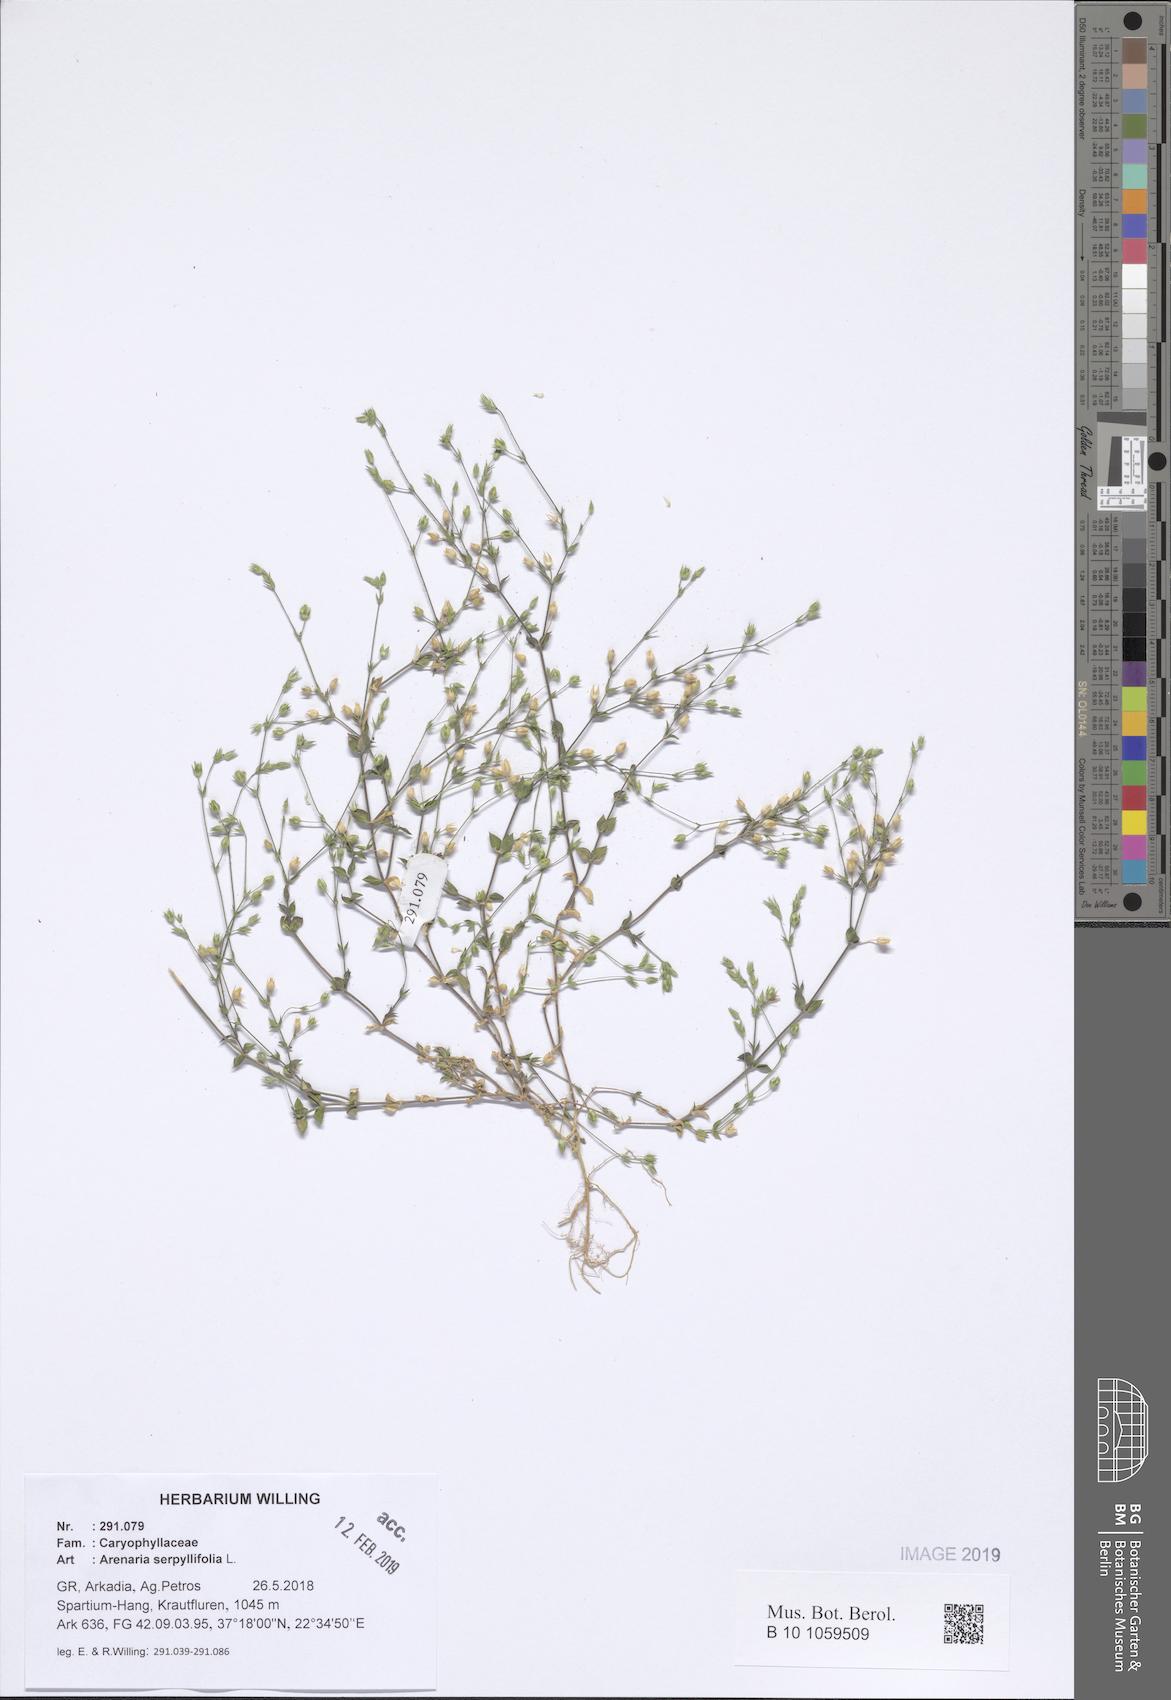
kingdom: Plantae
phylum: Tracheophyta
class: Magnoliopsida
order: Caryophyllales
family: Caryophyllaceae
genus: Arenaria
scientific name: Arenaria serpyllifolia
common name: Thyme-leaved sandwort
